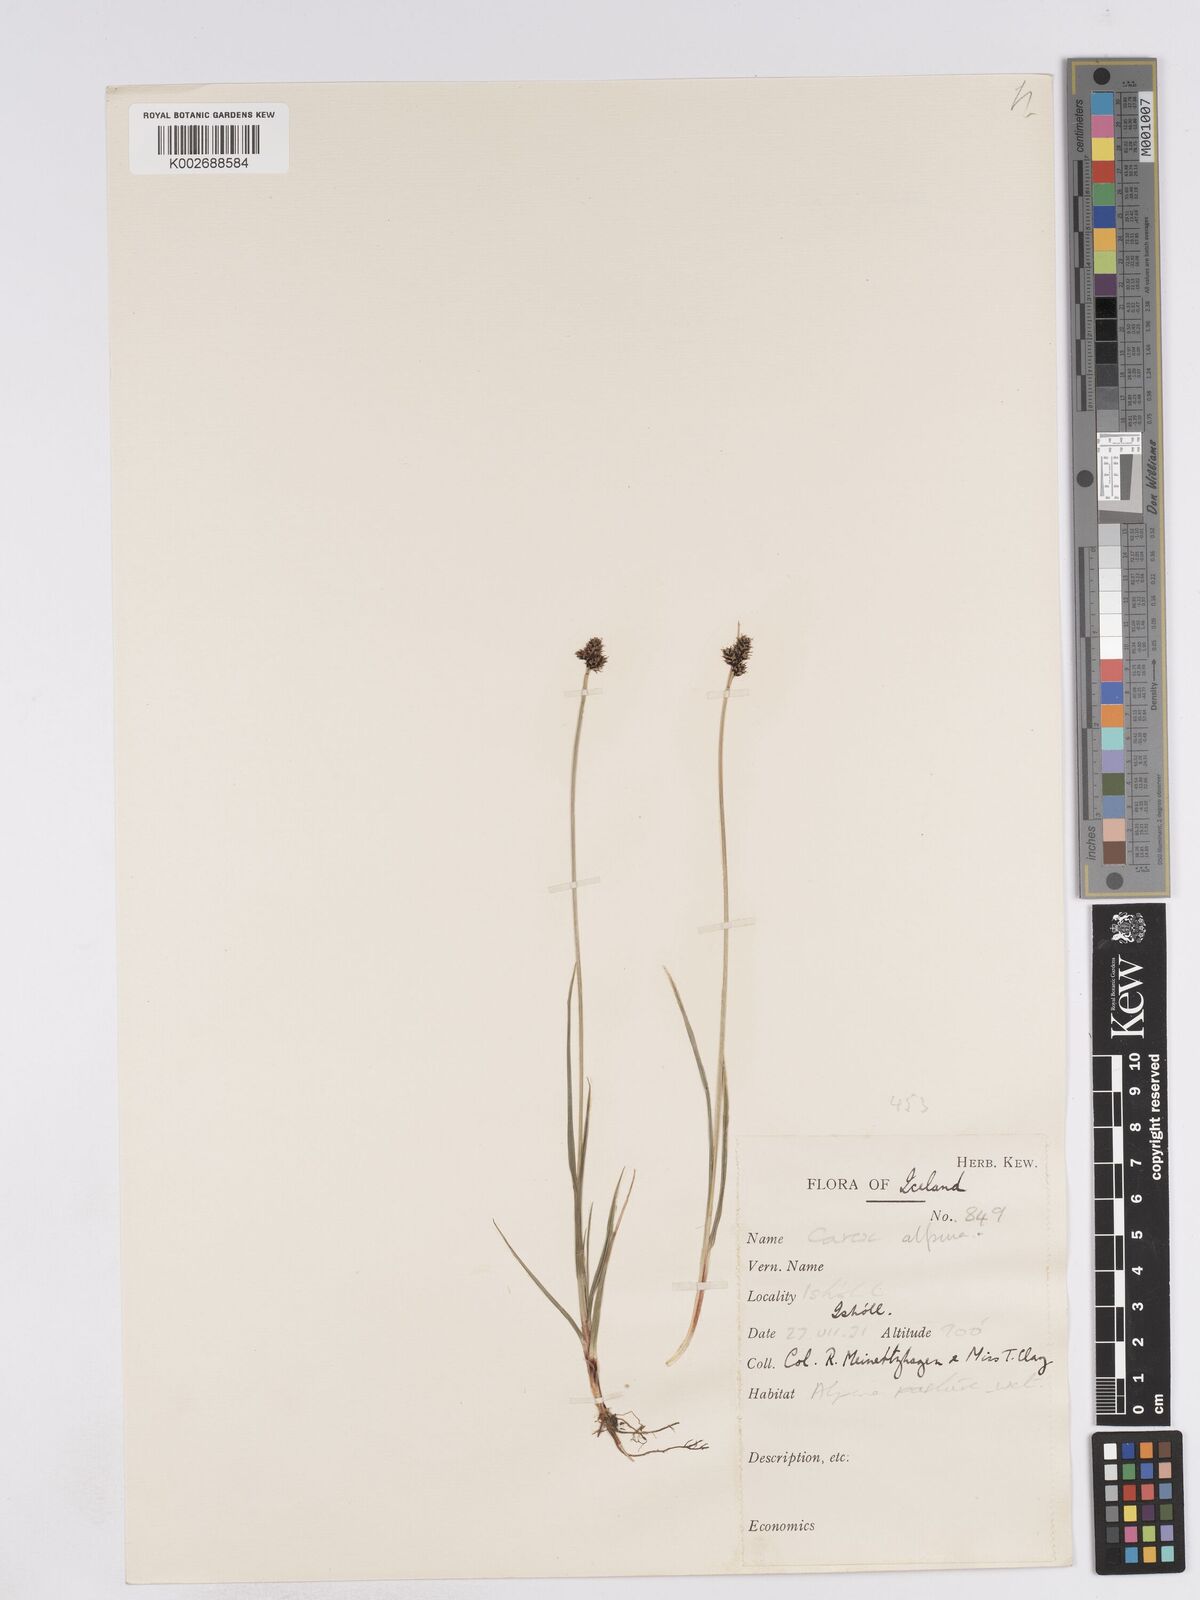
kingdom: Plantae
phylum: Tracheophyta
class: Liliopsida
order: Poales
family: Cyperaceae
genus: Carex
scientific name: Carex norvegica
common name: Close-headed alpine-sedge
